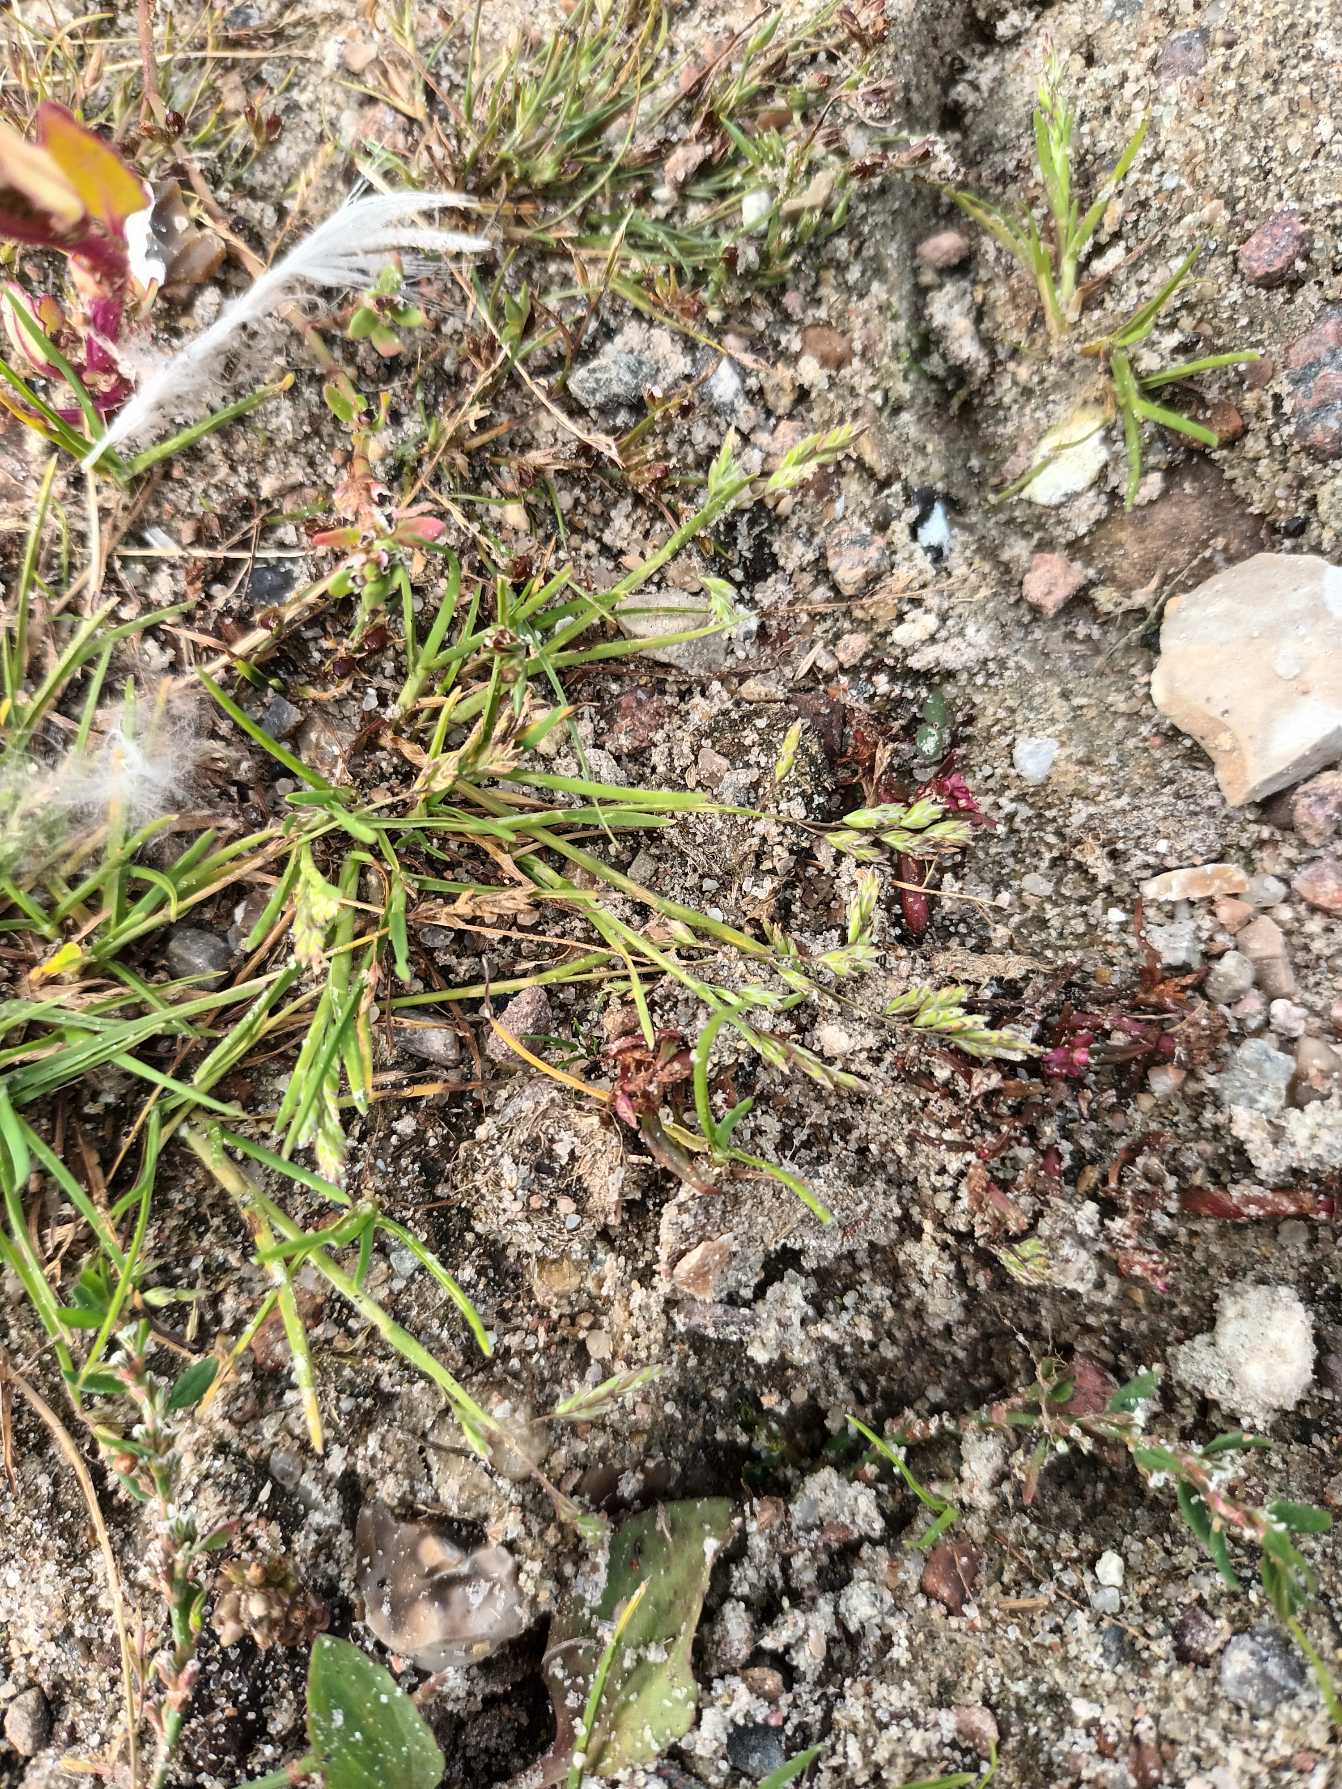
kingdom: Plantae
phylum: Tracheophyta
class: Liliopsida
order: Poales
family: Poaceae
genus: Poa
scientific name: Poa annua
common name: Enårig rapgræs
